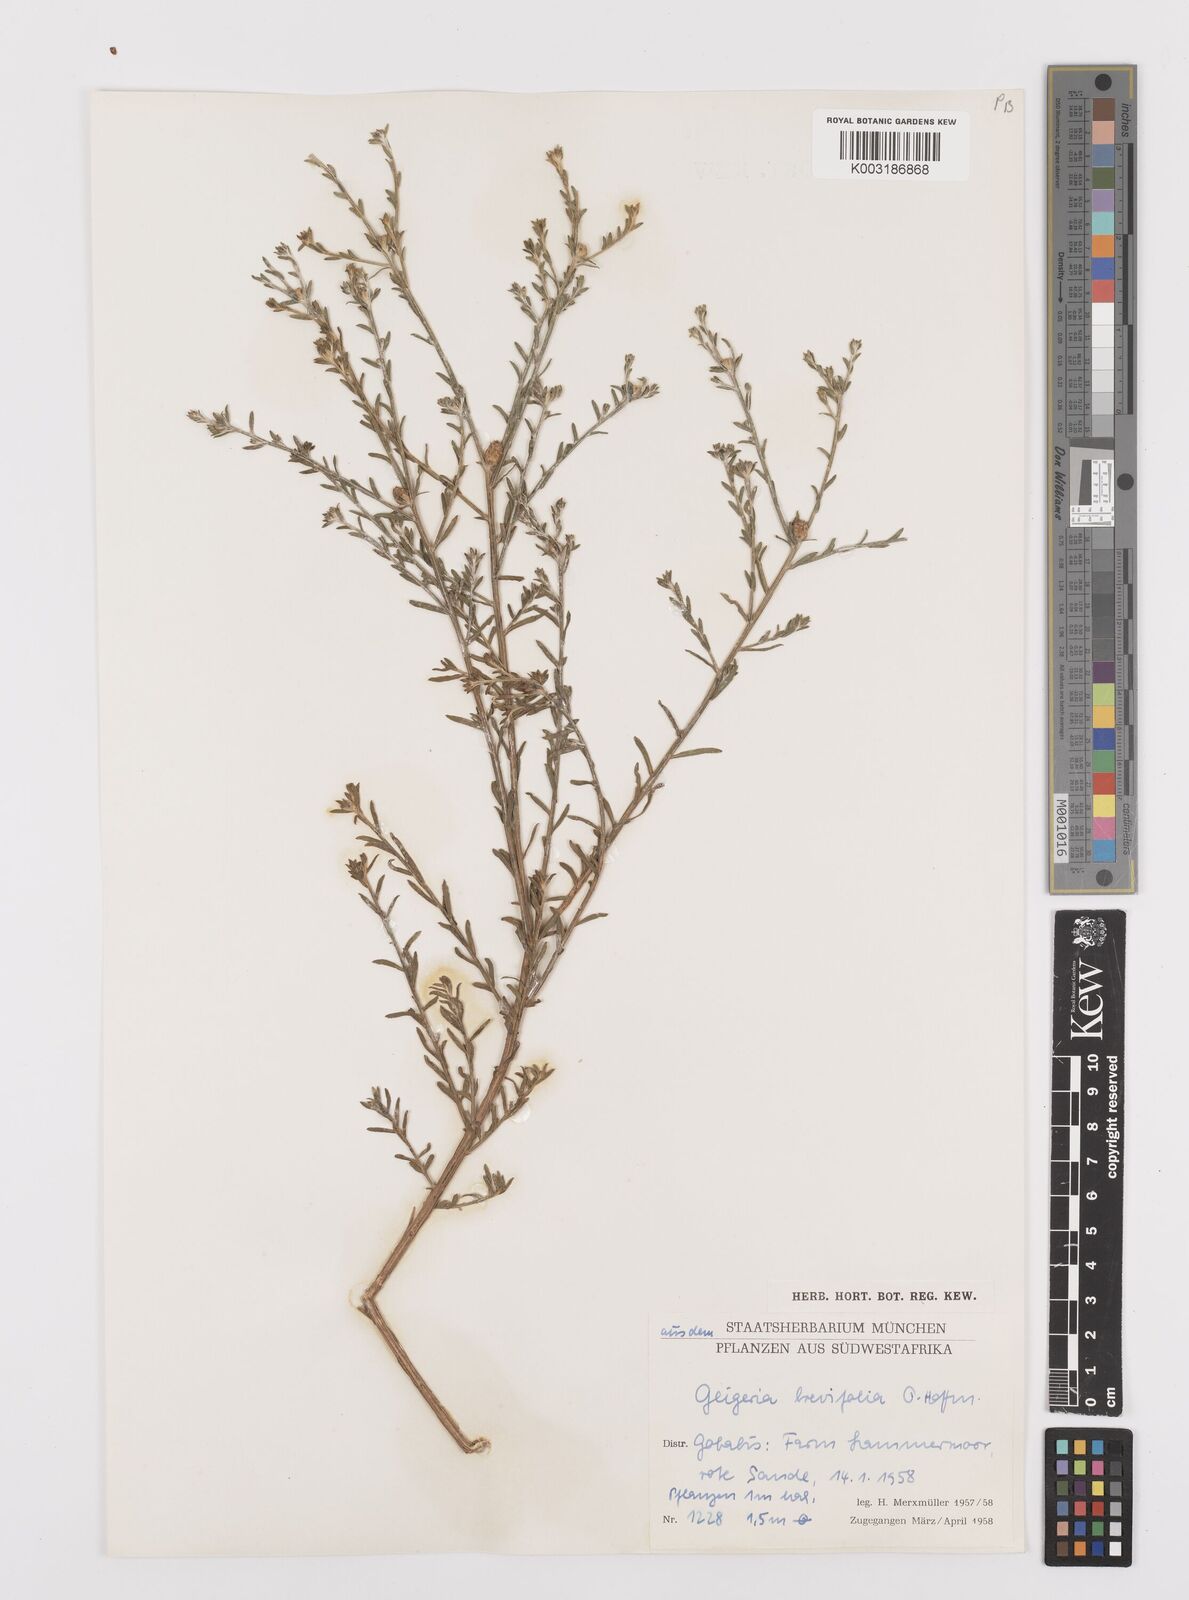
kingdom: Plantae
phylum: Tracheophyta
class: Magnoliopsida
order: Asterales
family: Asteraceae
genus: Geigeria
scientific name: Geigeria brevifolia
